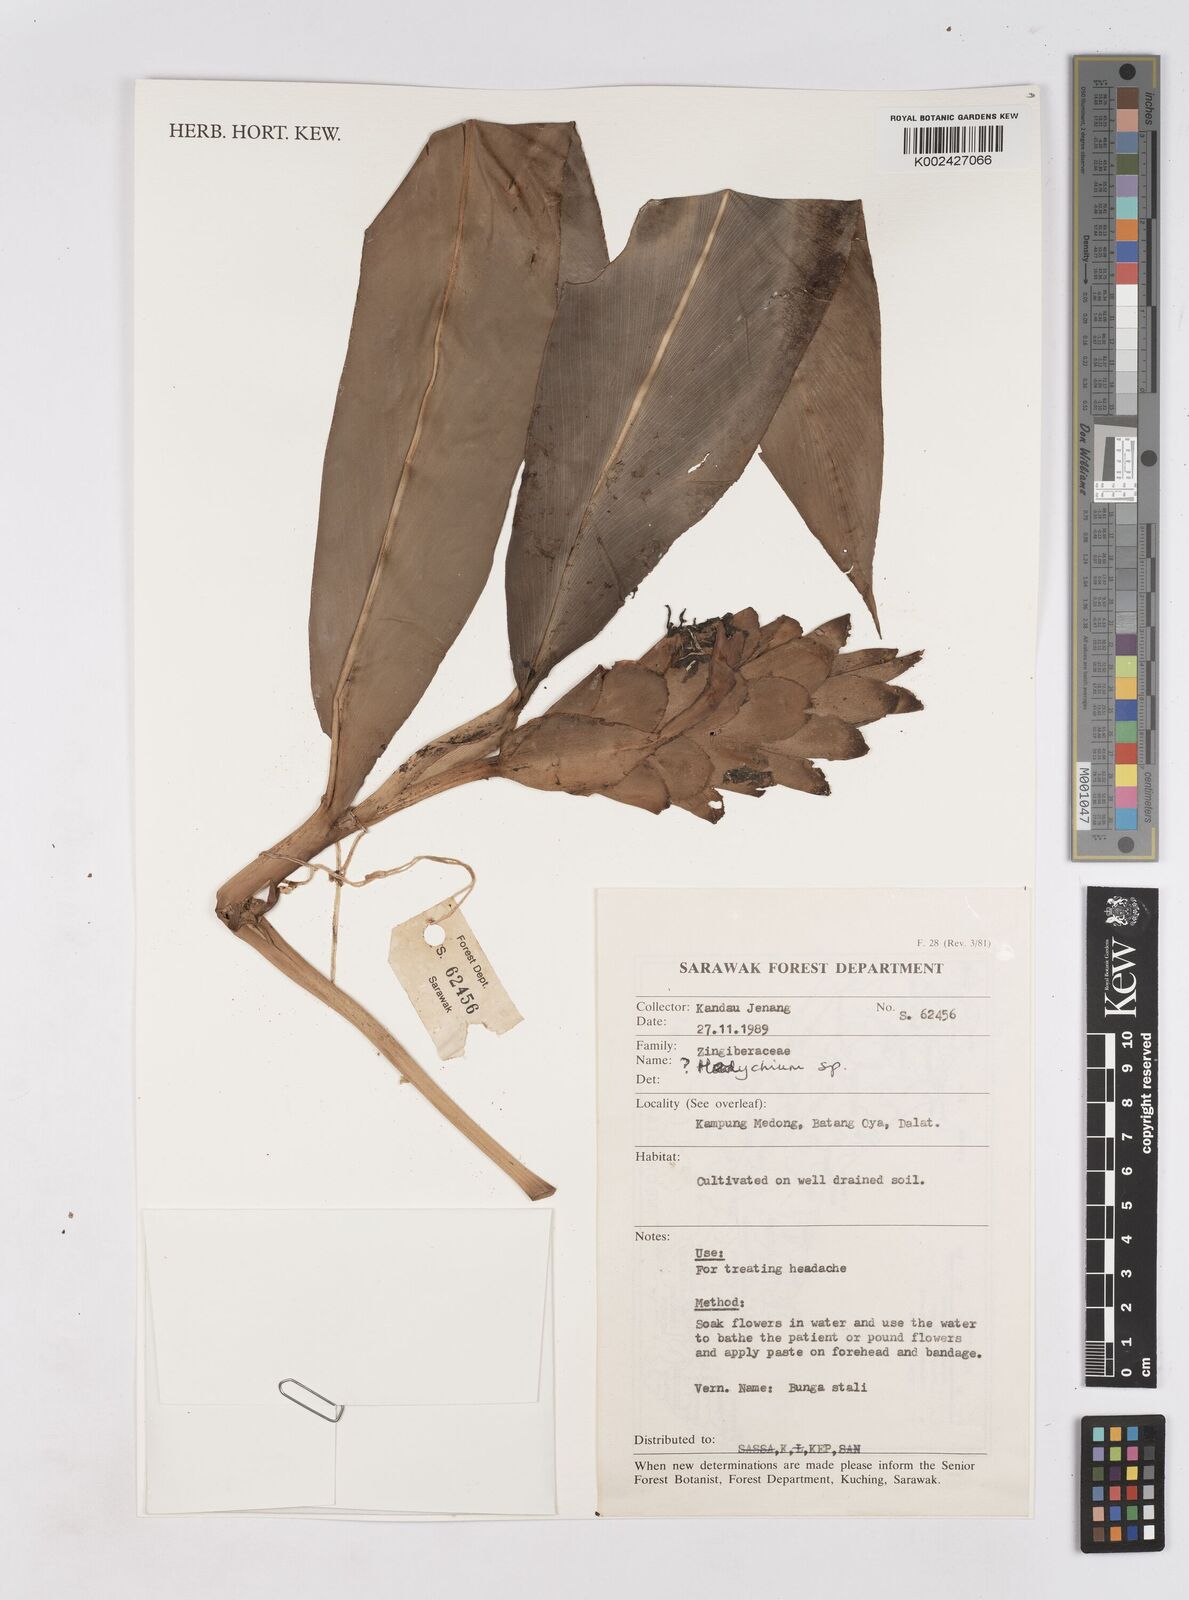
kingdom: Plantae
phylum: Tracheophyta
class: Liliopsida
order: Zingiberales
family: Zingiberaceae
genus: Hedychium
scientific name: Hedychium
